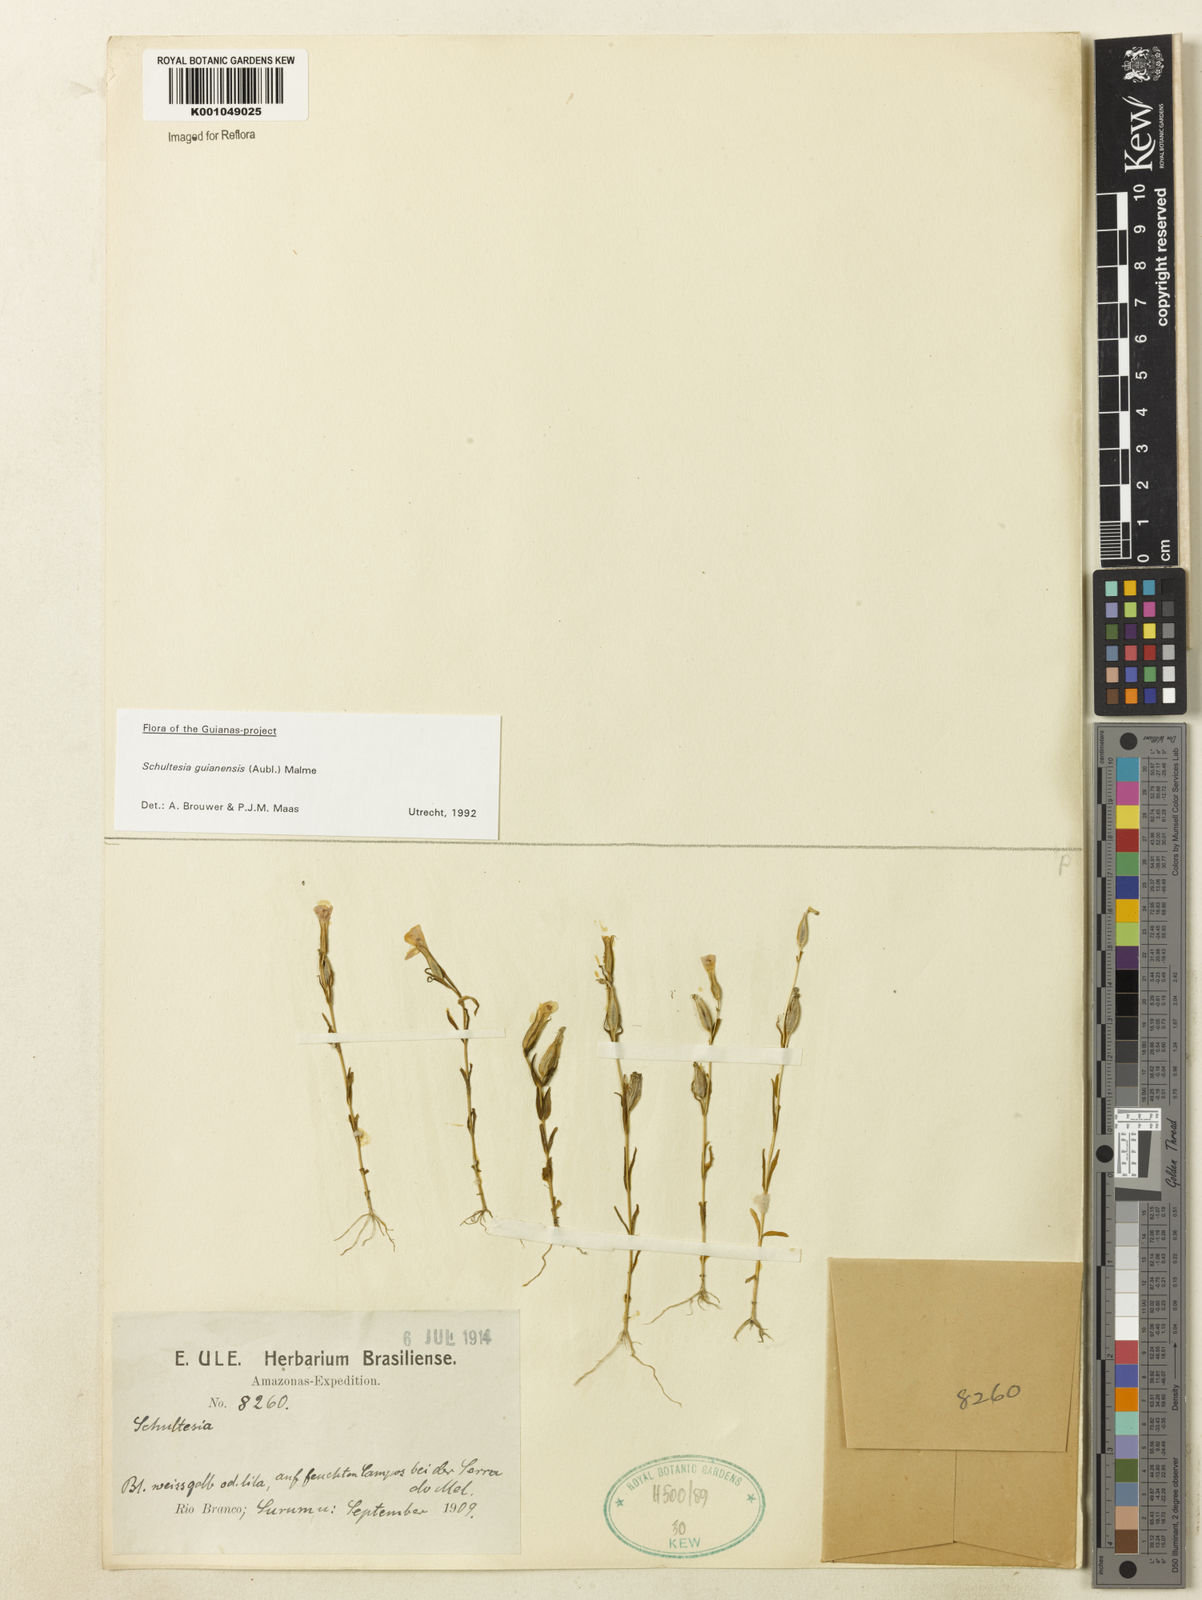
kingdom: Plantae
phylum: Tracheophyta
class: Magnoliopsida
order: Gentianales
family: Gentianaceae
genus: Schultesia
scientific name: Schultesia guianensis
